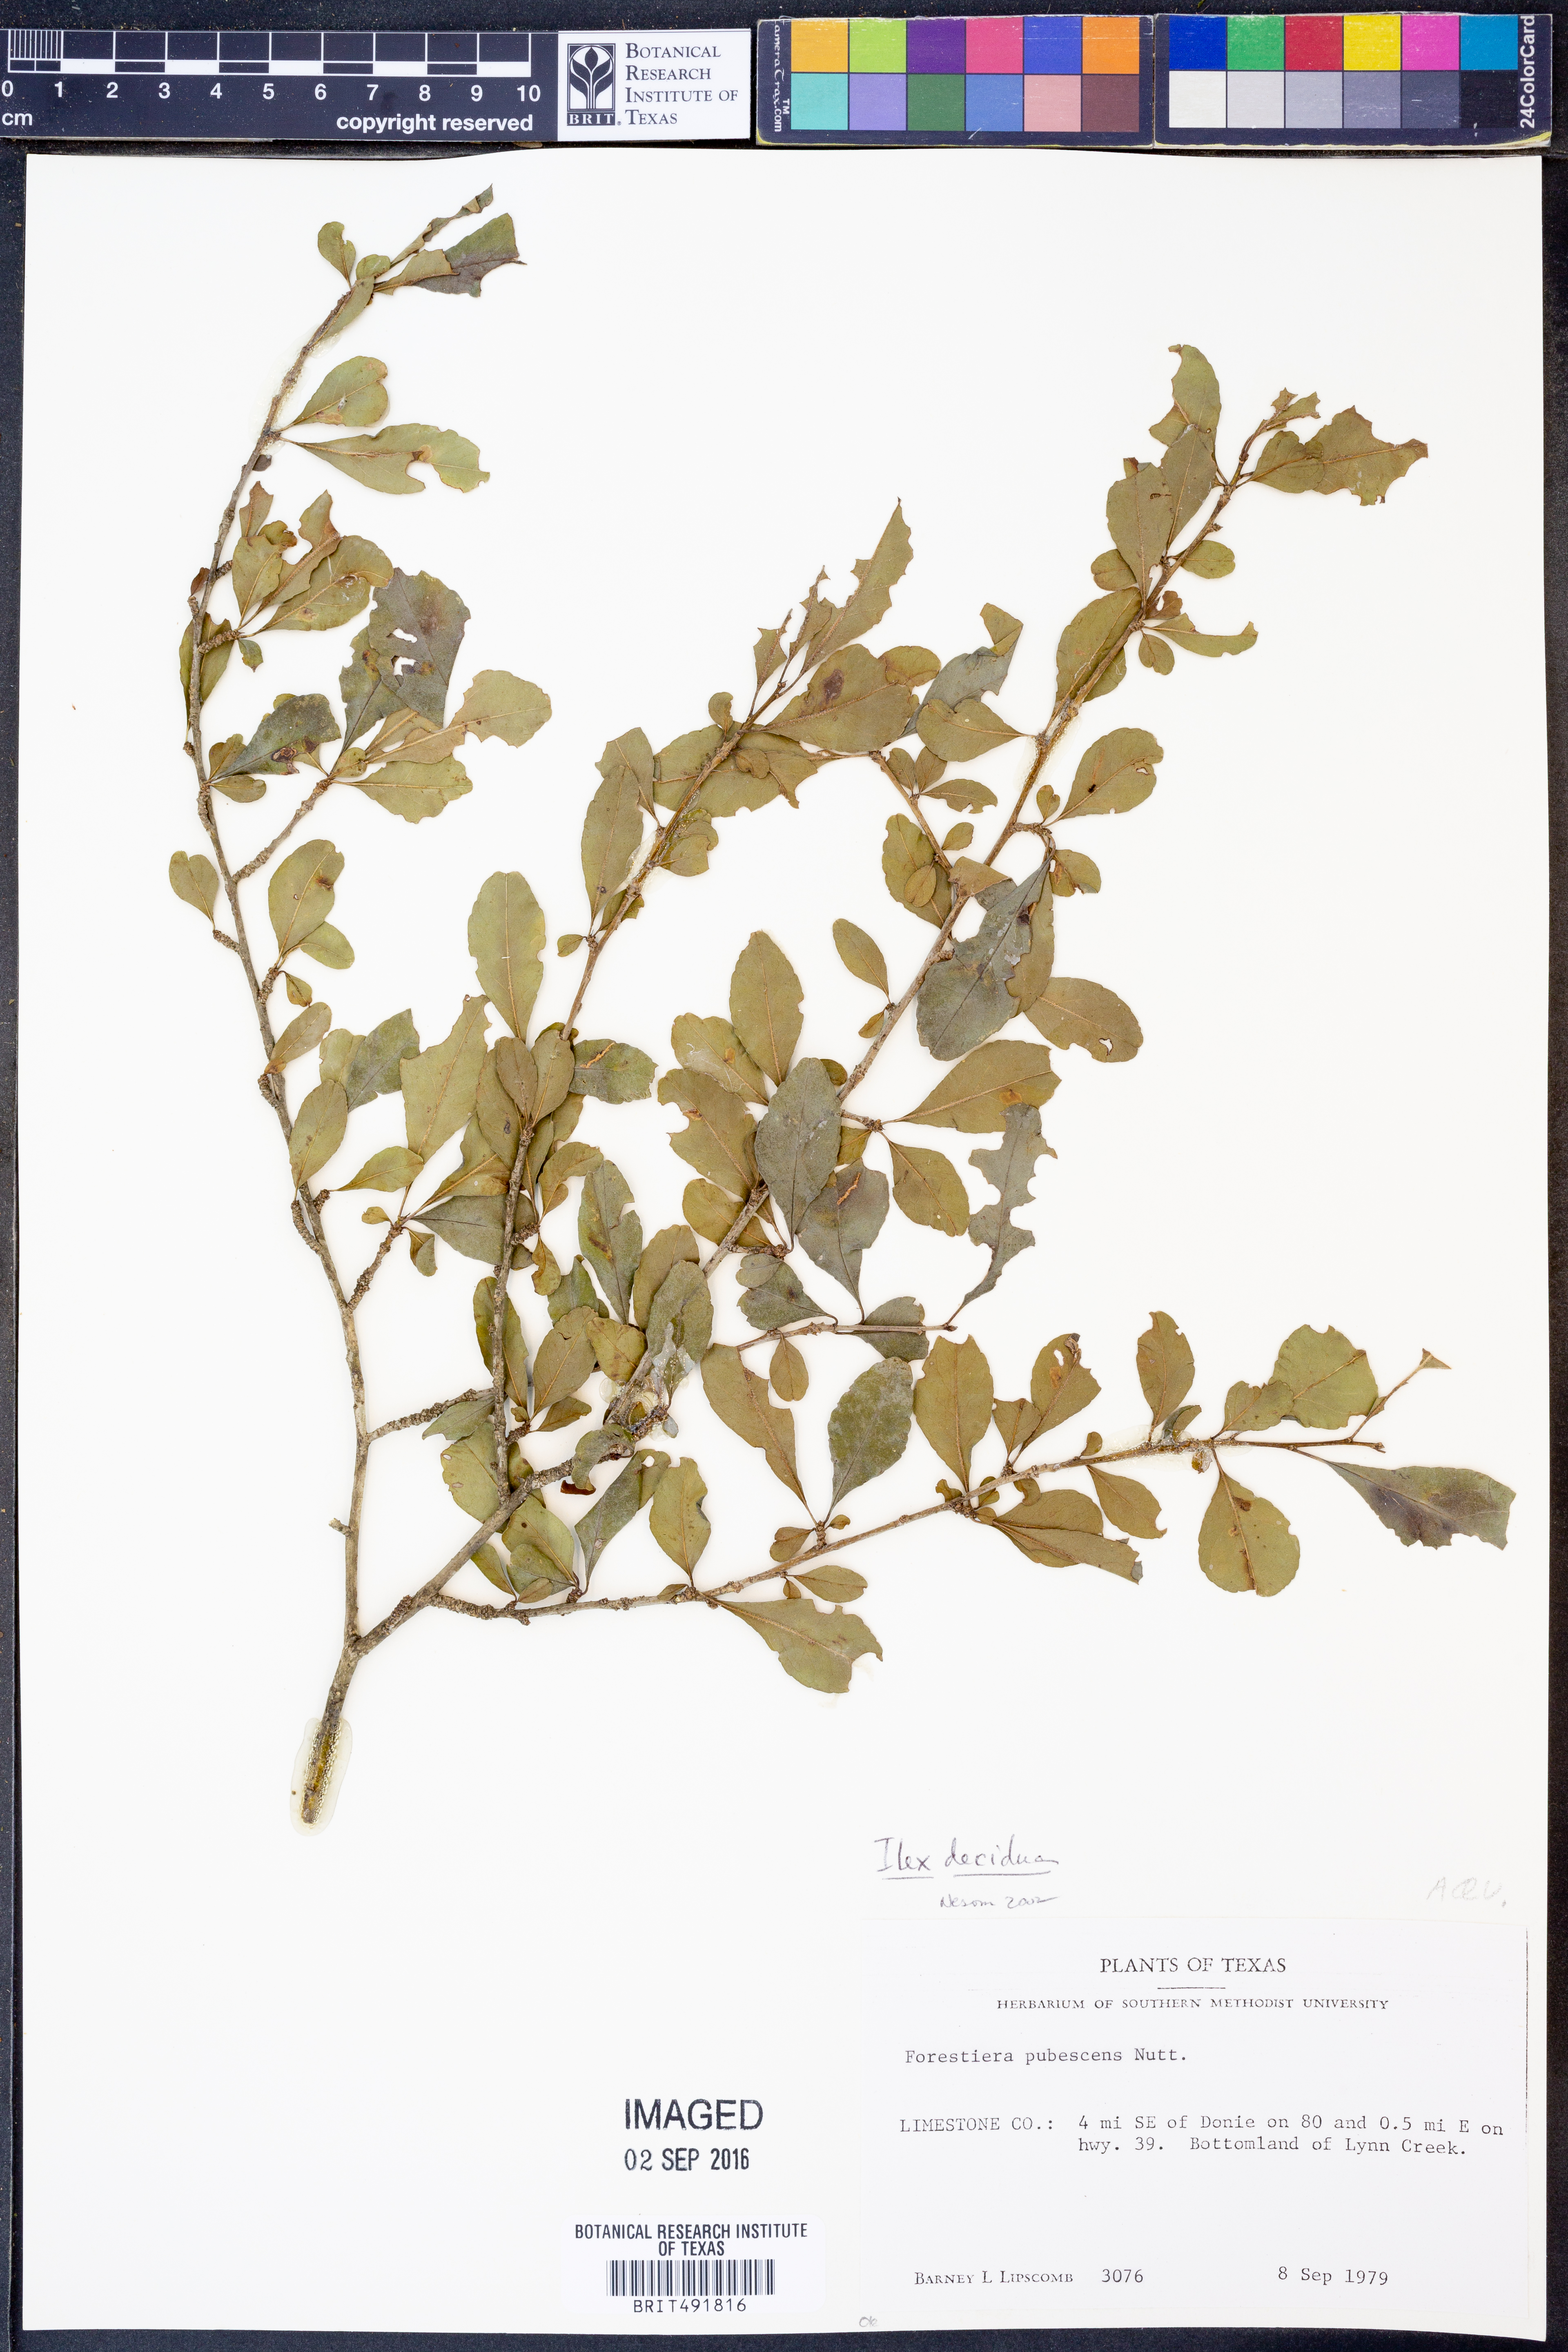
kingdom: Plantae
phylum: Tracheophyta
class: Magnoliopsida
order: Aquifoliales
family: Aquifoliaceae
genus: Ilex
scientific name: Ilex decidua
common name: Possum-haw
